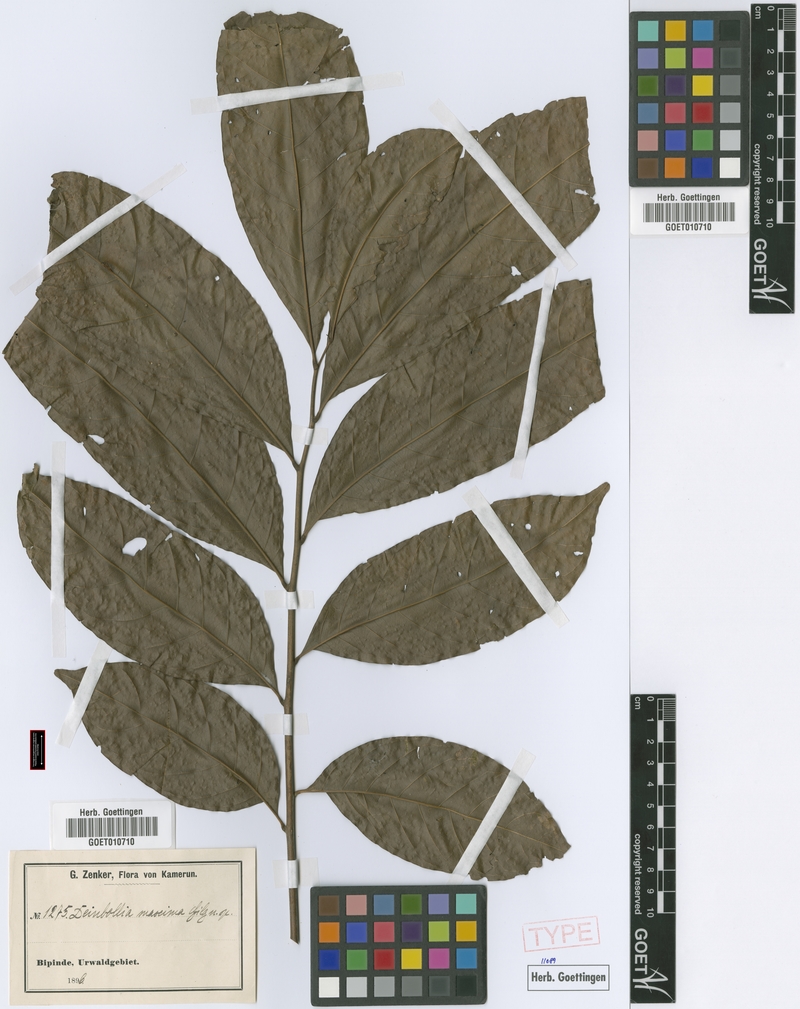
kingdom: Plantae
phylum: Tracheophyta
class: Magnoliopsida
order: Sapindales
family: Sapindaceae
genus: Deinbollia
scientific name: Deinbollia maxima
